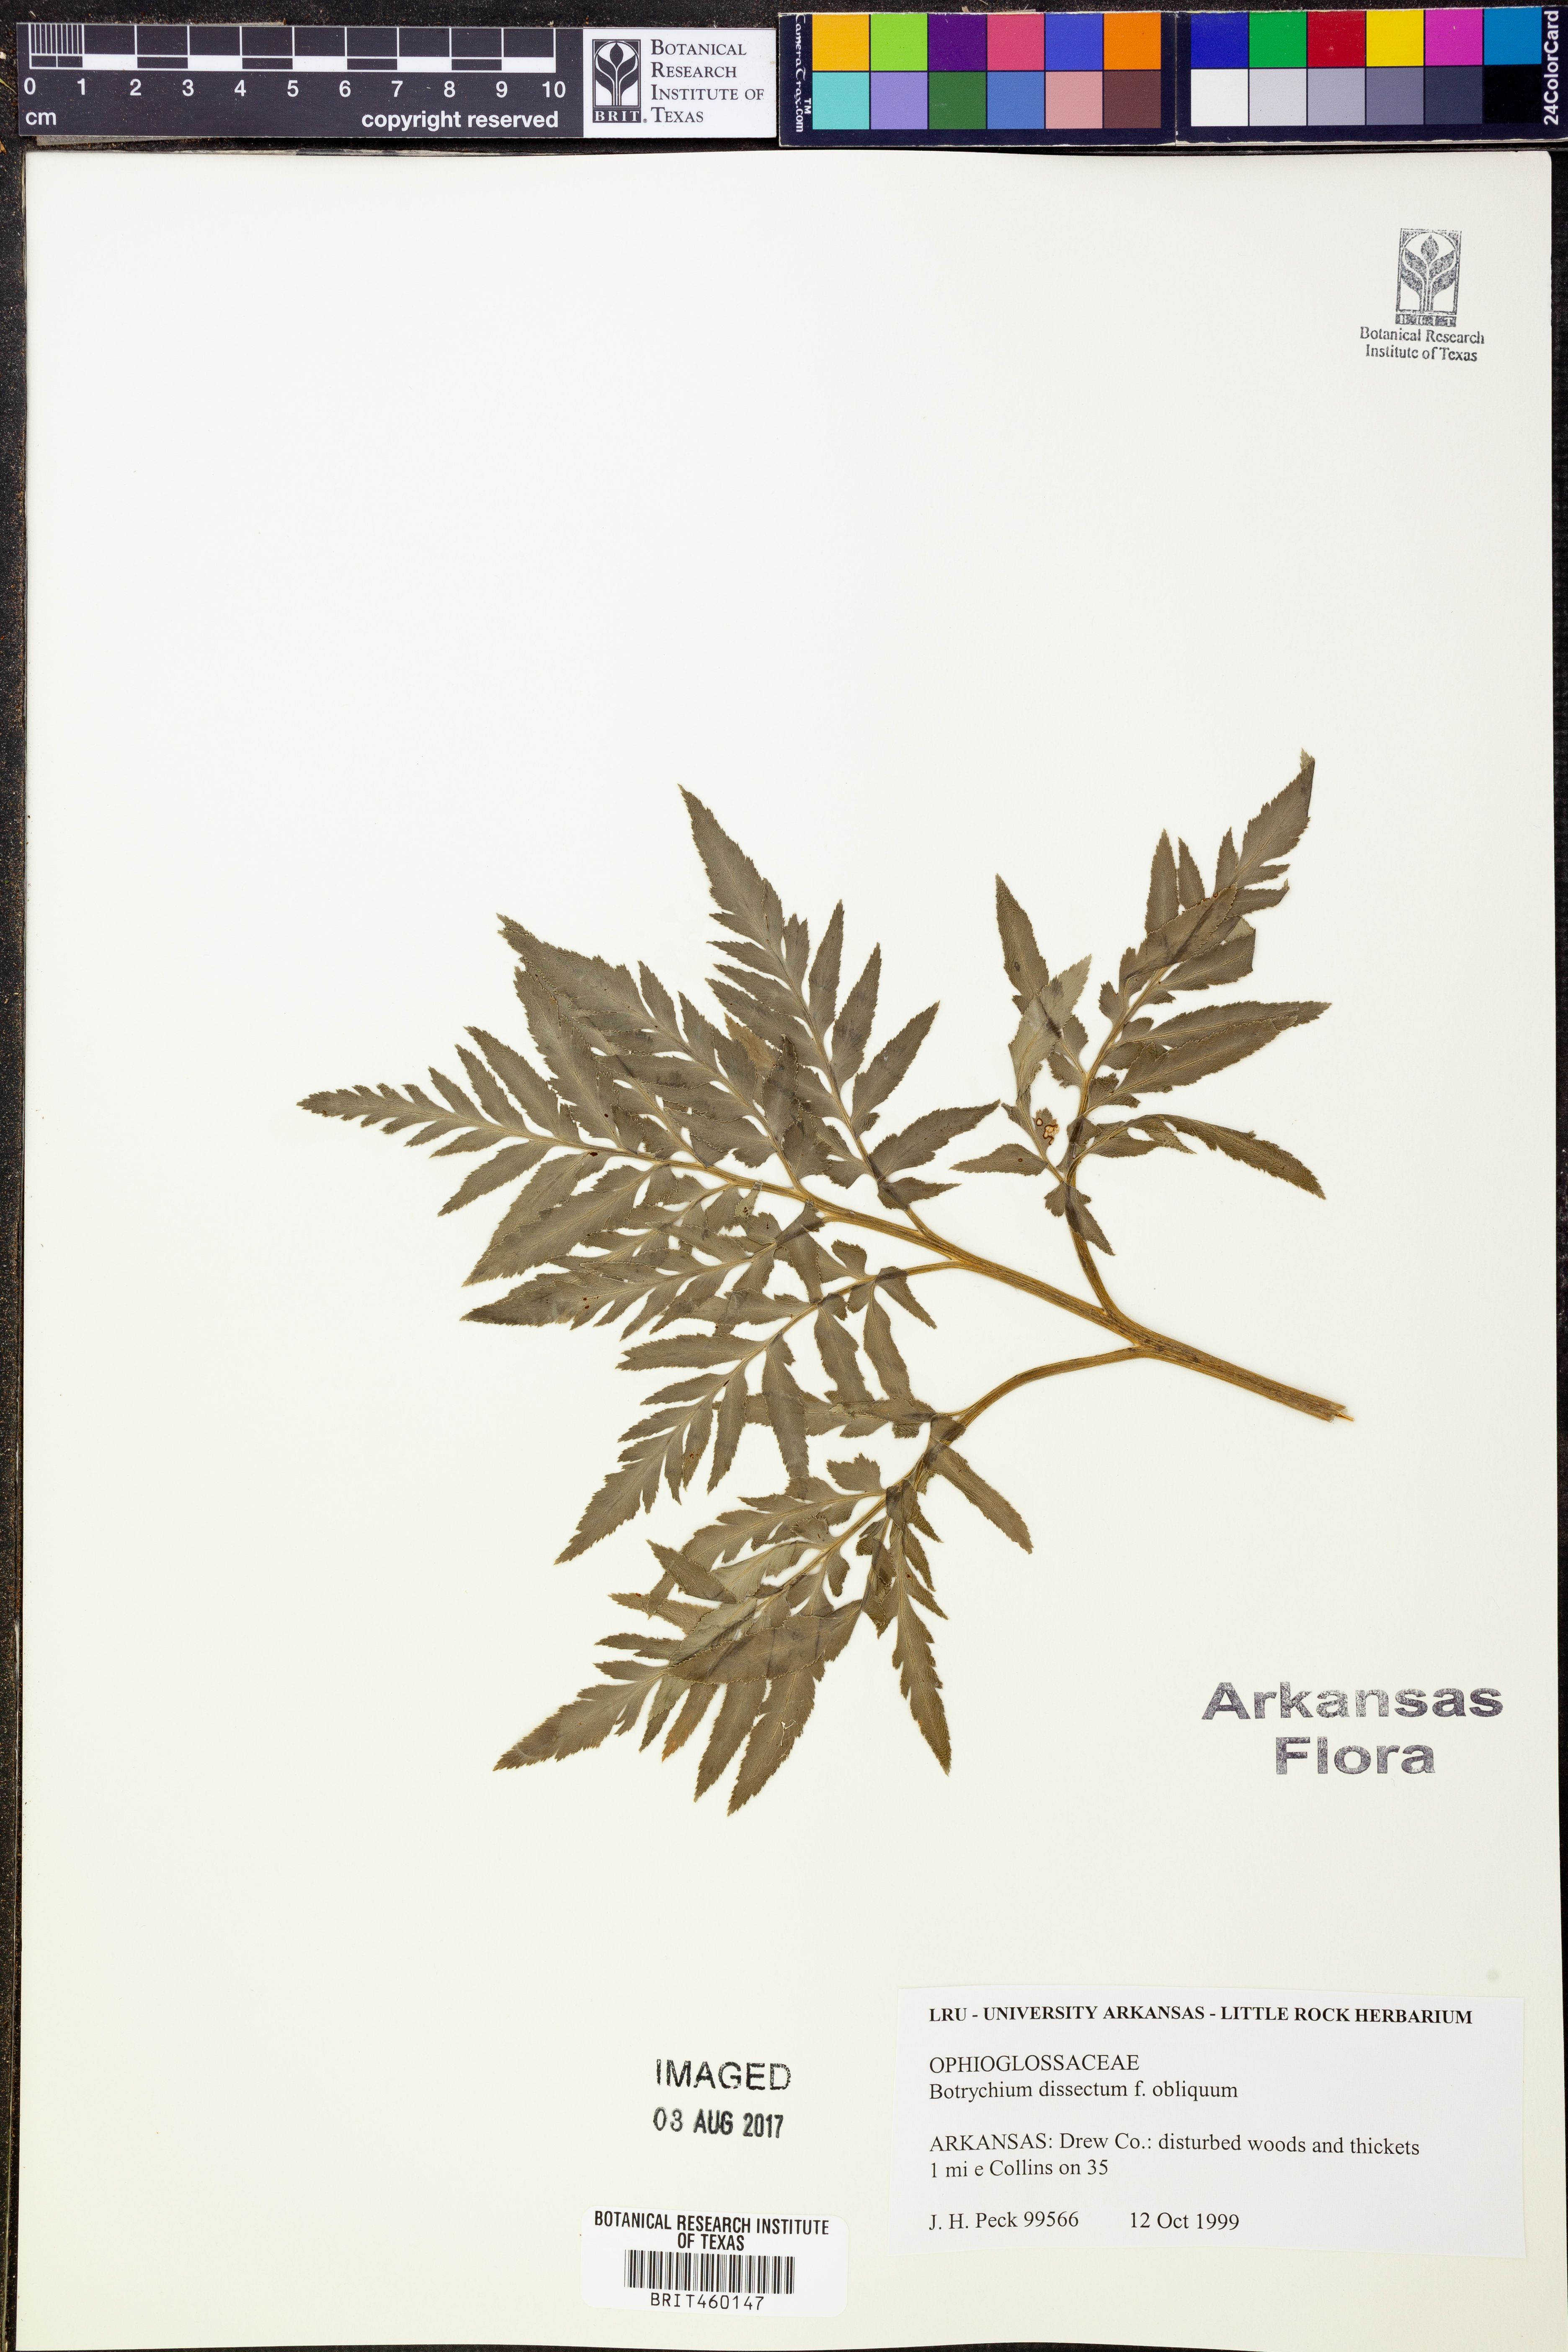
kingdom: Plantae
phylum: Tracheophyta
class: Polypodiopsida
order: Ophioglossales
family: Ophioglossaceae
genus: Sceptridium
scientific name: Sceptridium dissectum
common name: Cut-leaved grapefern
